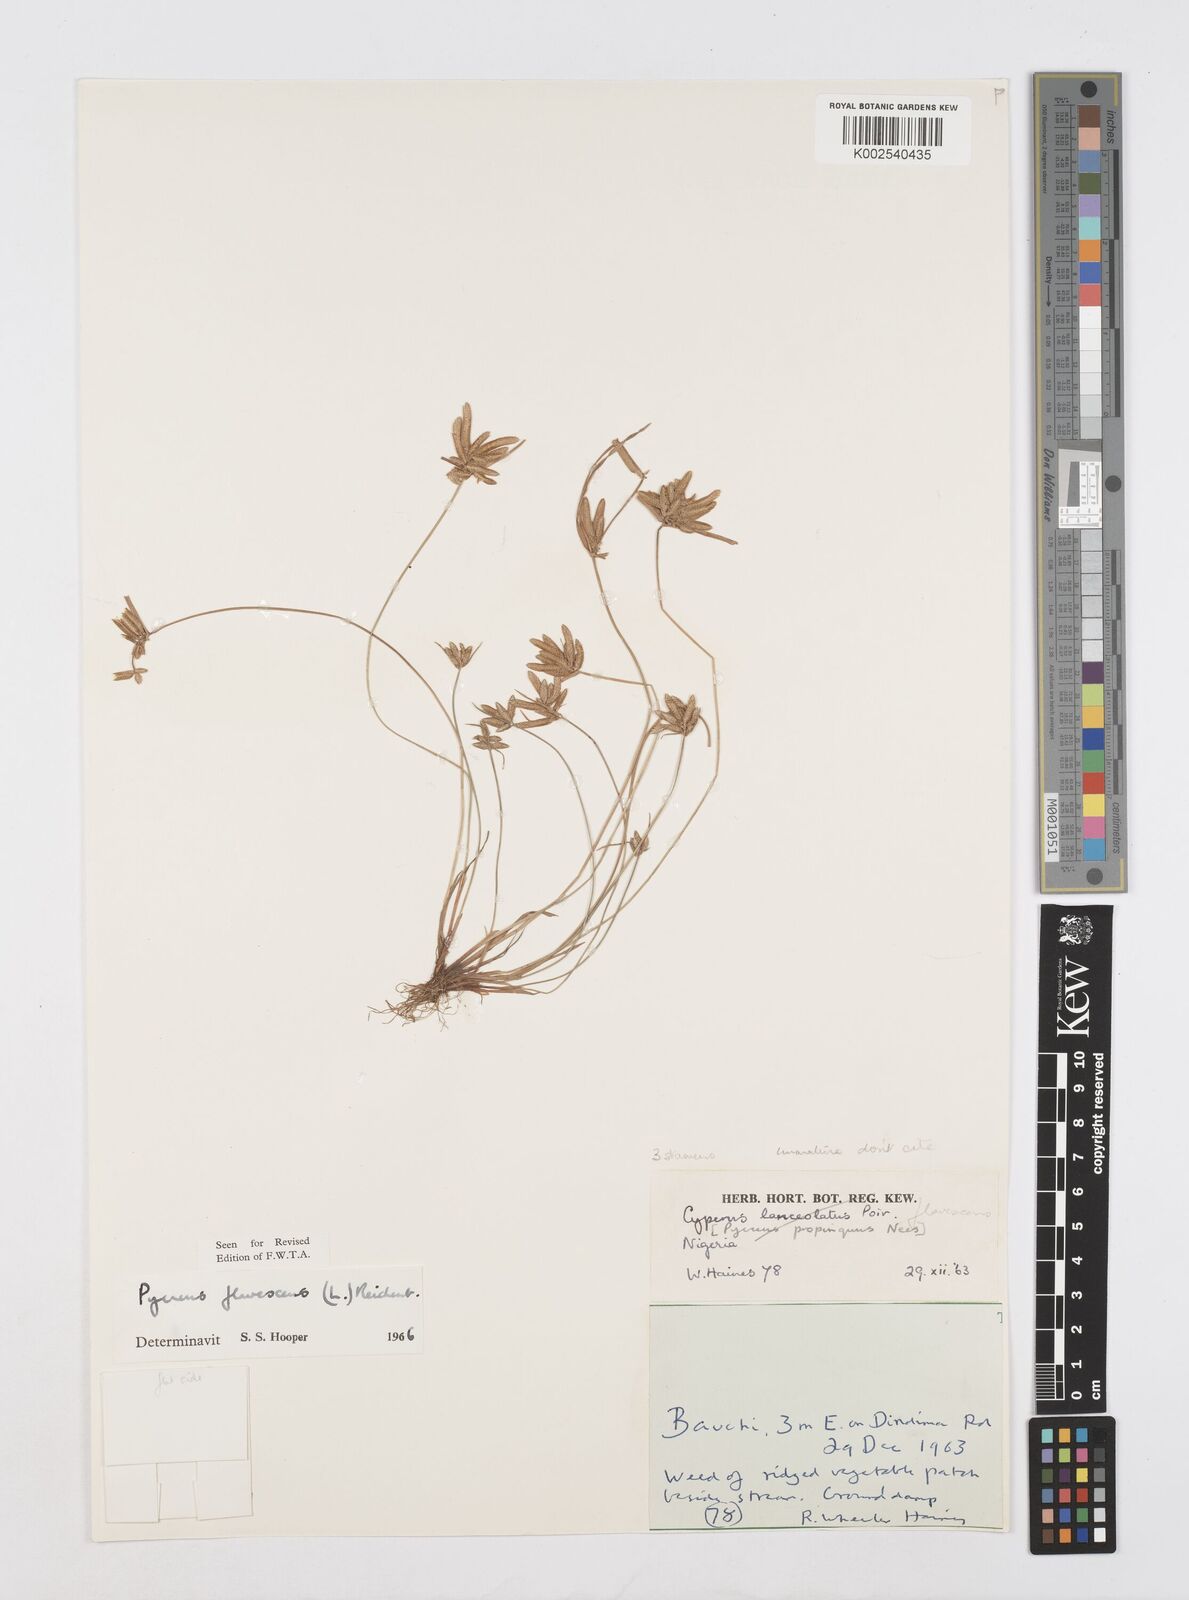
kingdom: Plantae
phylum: Tracheophyta
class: Liliopsida
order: Poales
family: Cyperaceae
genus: Cyperus
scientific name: Cyperus flavescens
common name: Yellow galingale
